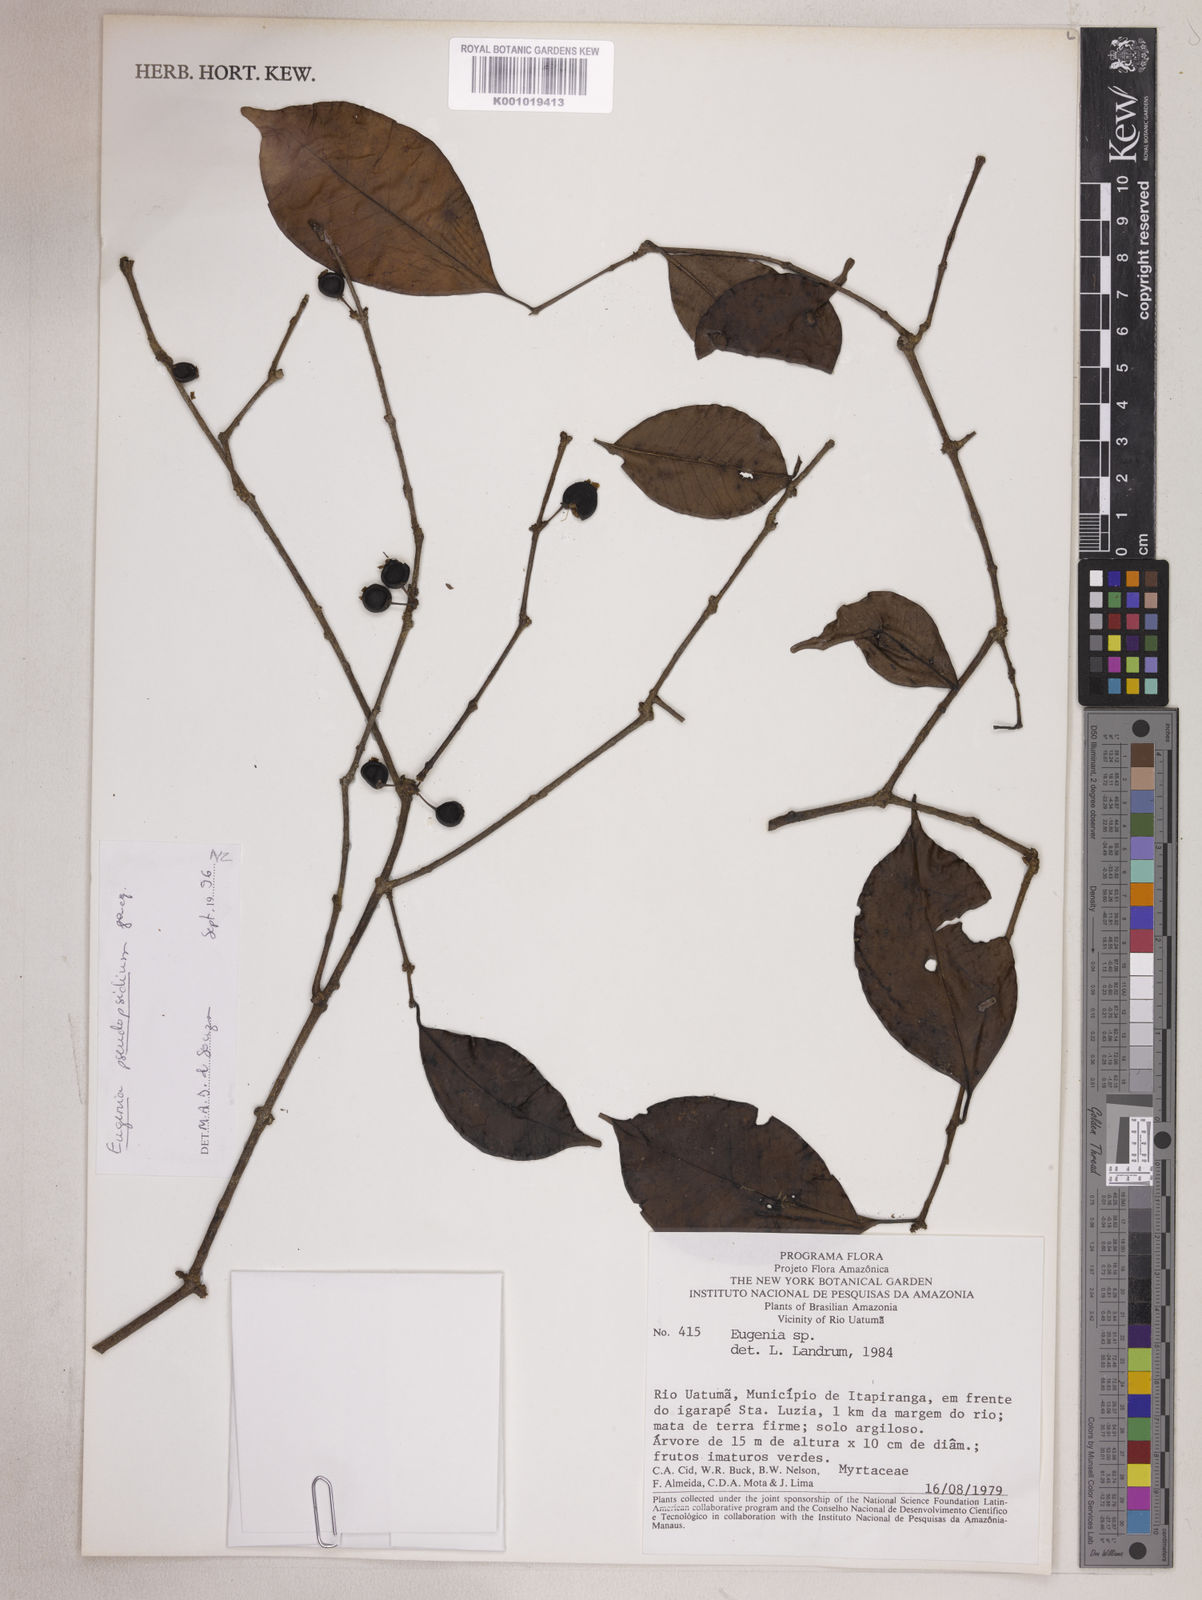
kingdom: Plantae
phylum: Tracheophyta
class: Magnoliopsida
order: Myrtales
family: Myrtaceae
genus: Eugenia
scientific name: Eugenia pseudopsidium
